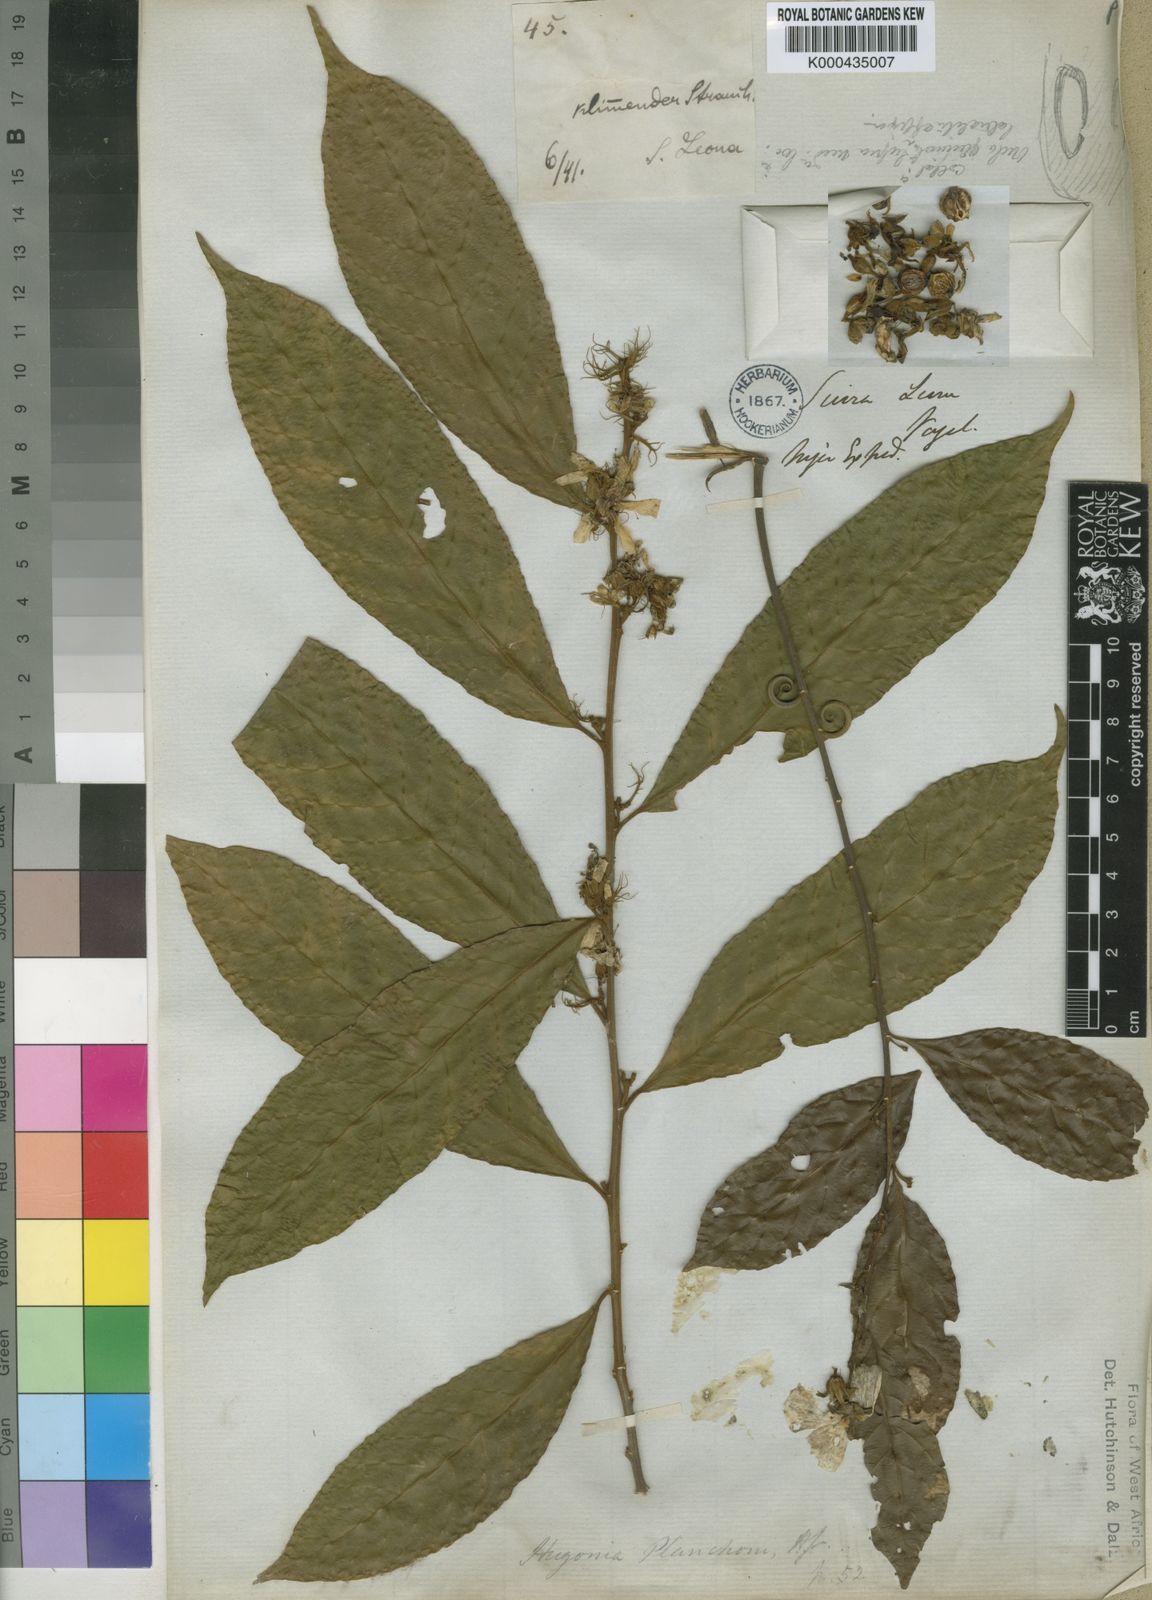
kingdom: Plantae
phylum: Tracheophyta
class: Magnoliopsida
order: Malpighiales
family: Linaceae
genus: Hugonia
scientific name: Hugonia planchonii
